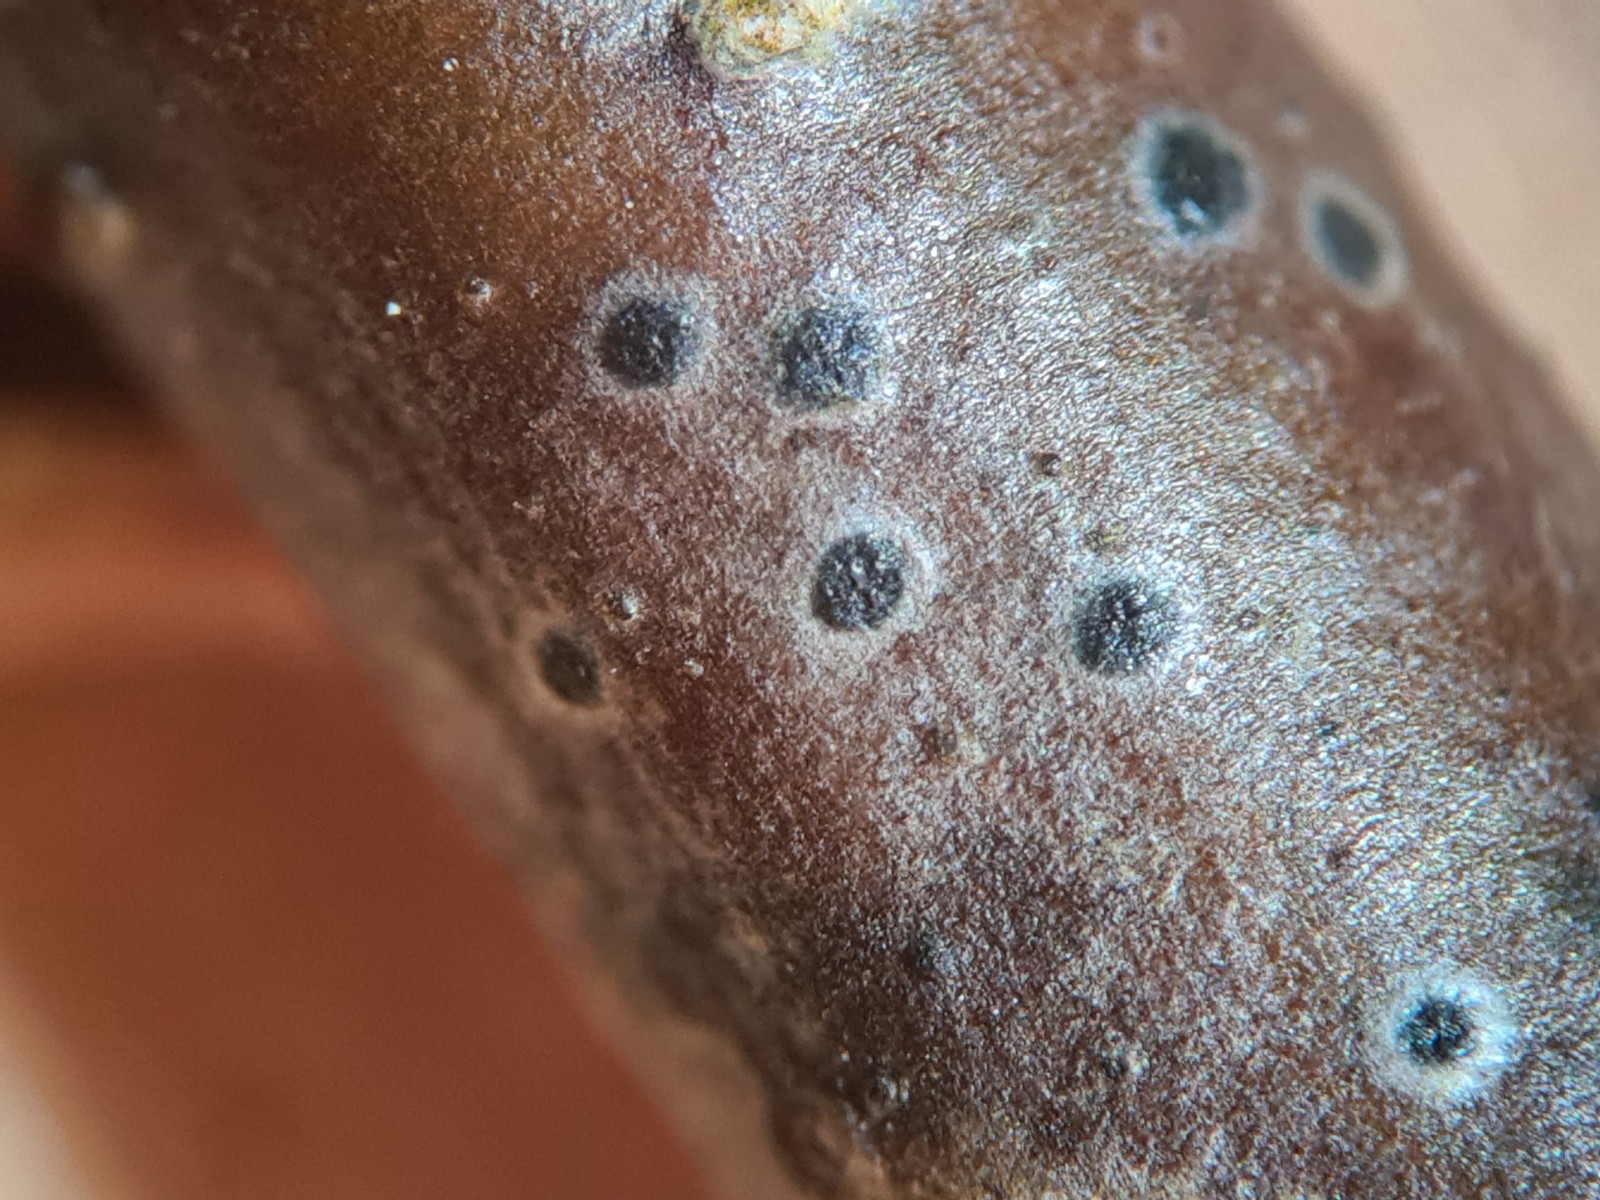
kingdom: Fungi
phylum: Ascomycota
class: Dothideomycetes
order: Dothideales
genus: Mycoglaena
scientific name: Mycoglaena myricae
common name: liden porsprik
